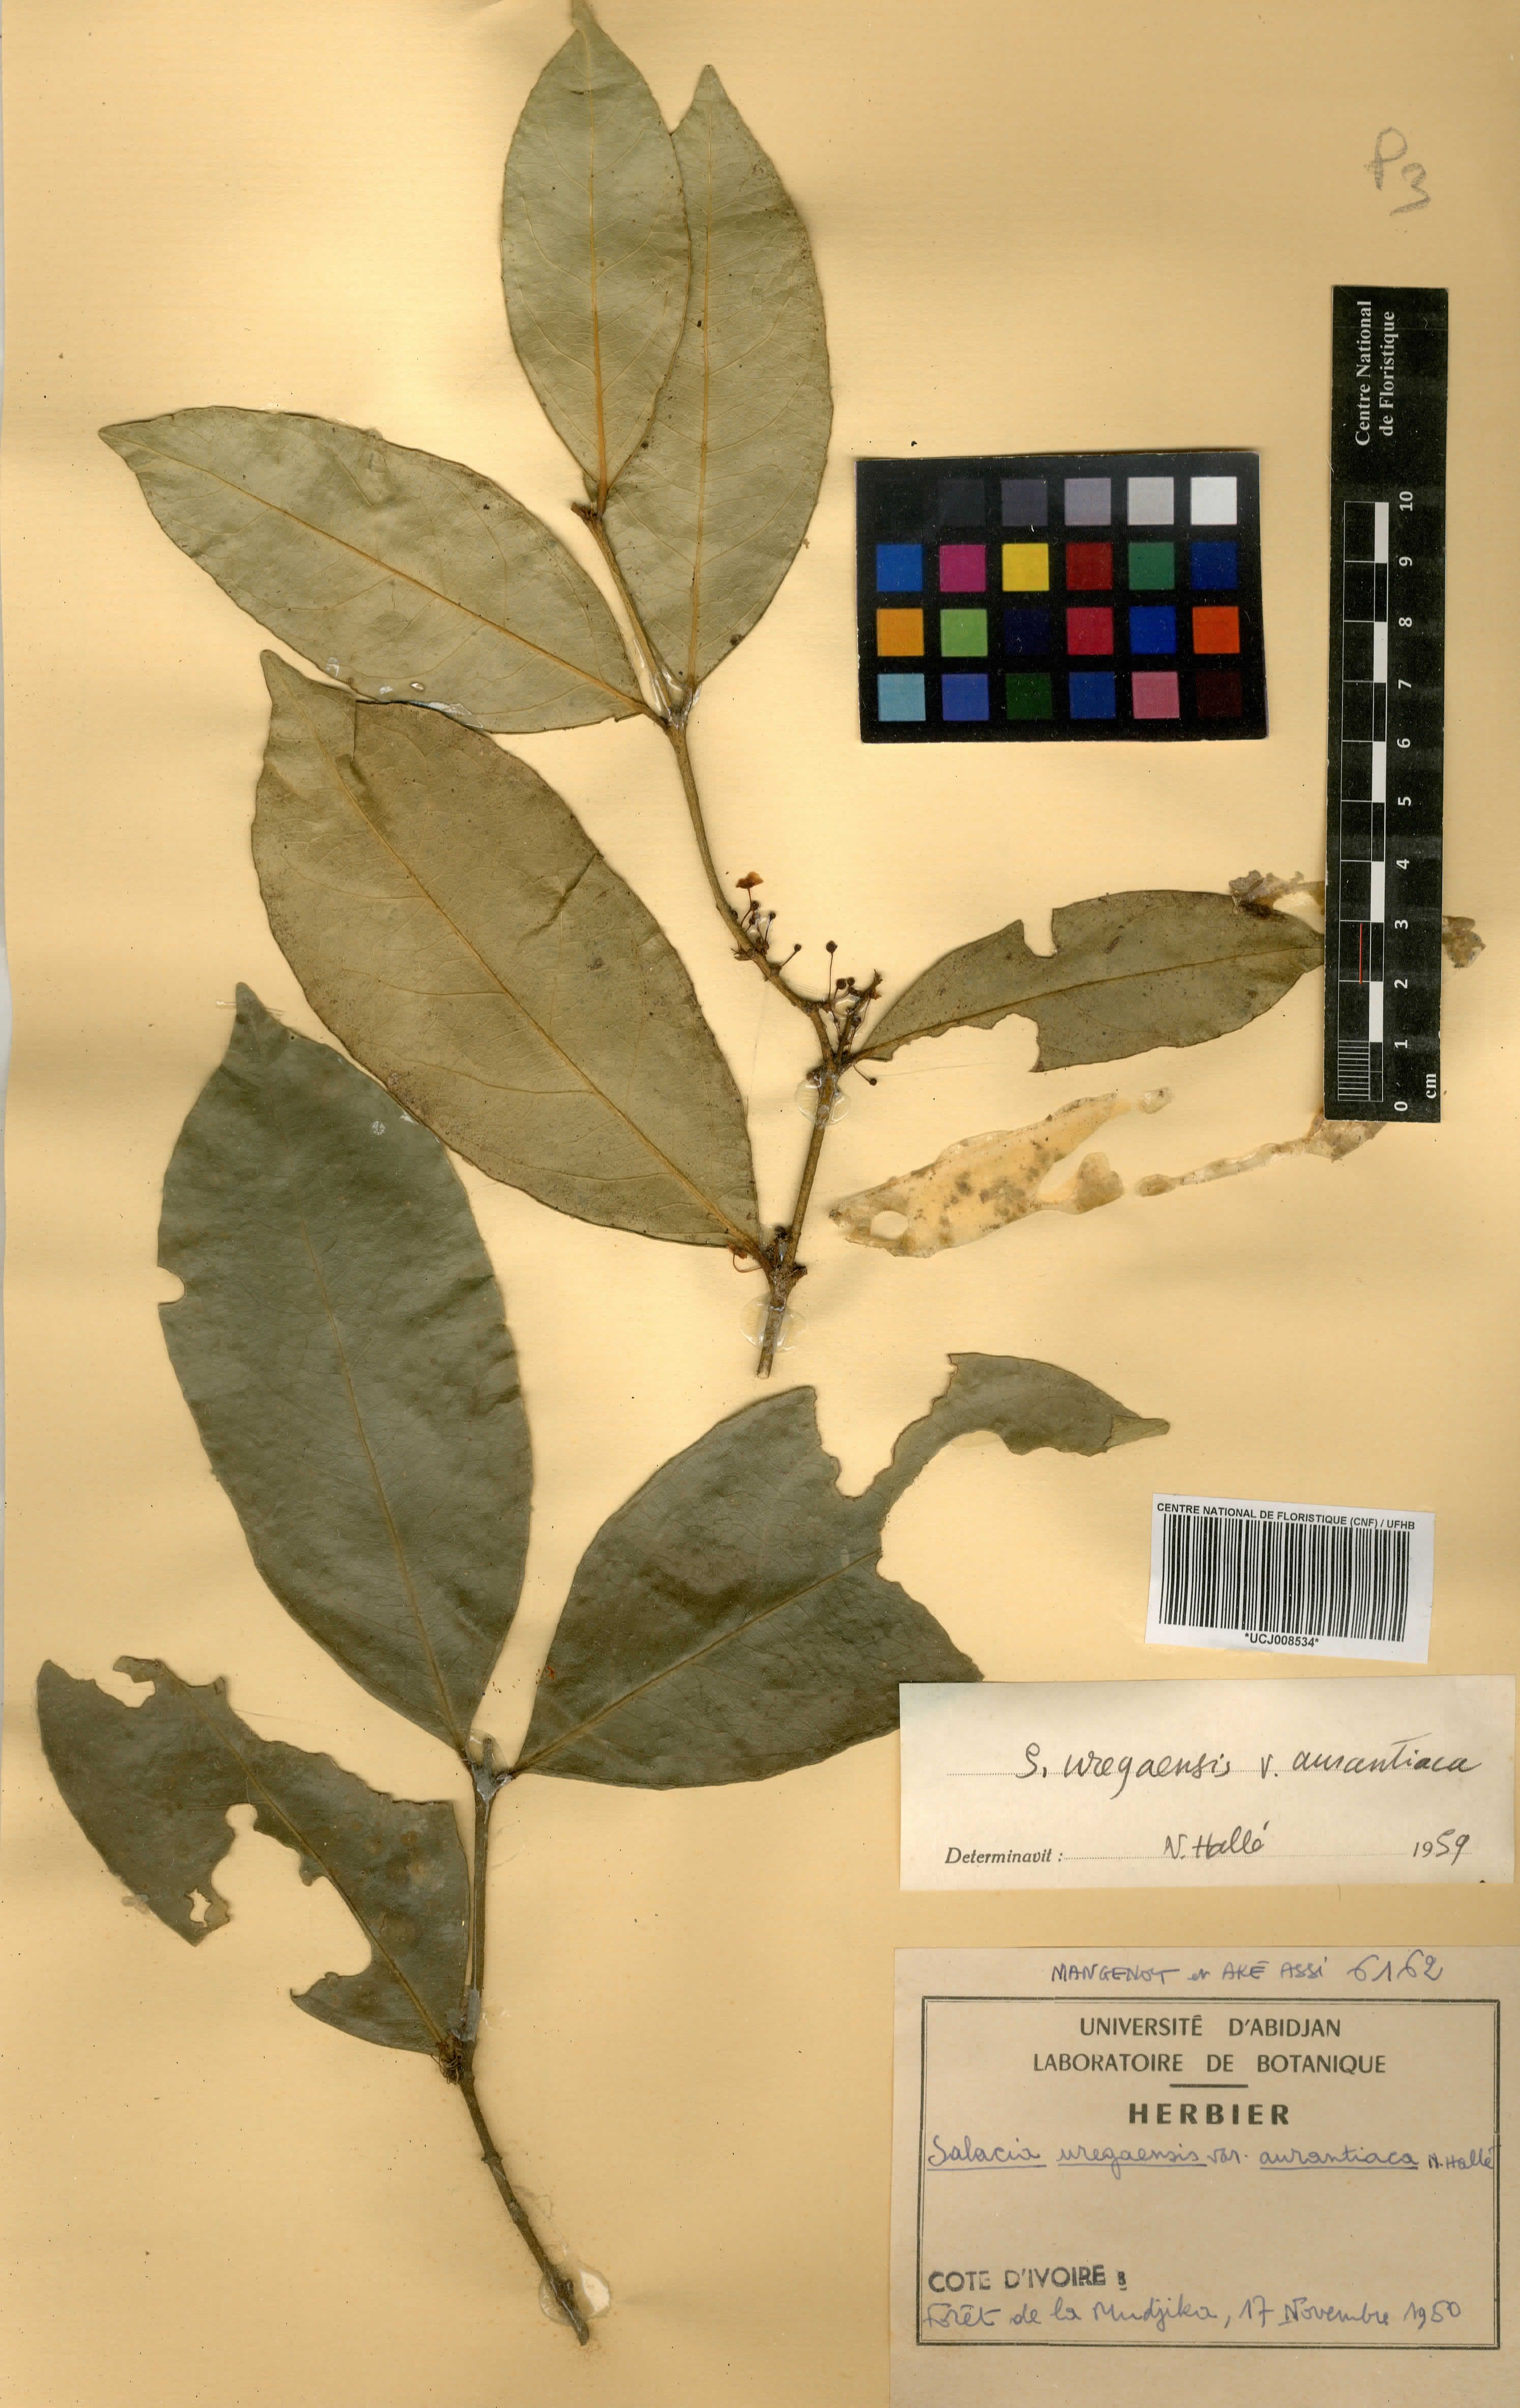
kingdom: Plantae
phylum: Tracheophyta
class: Magnoliopsida
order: Celastrales
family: Celastraceae
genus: Salacia
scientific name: Salacia lehmbachii
